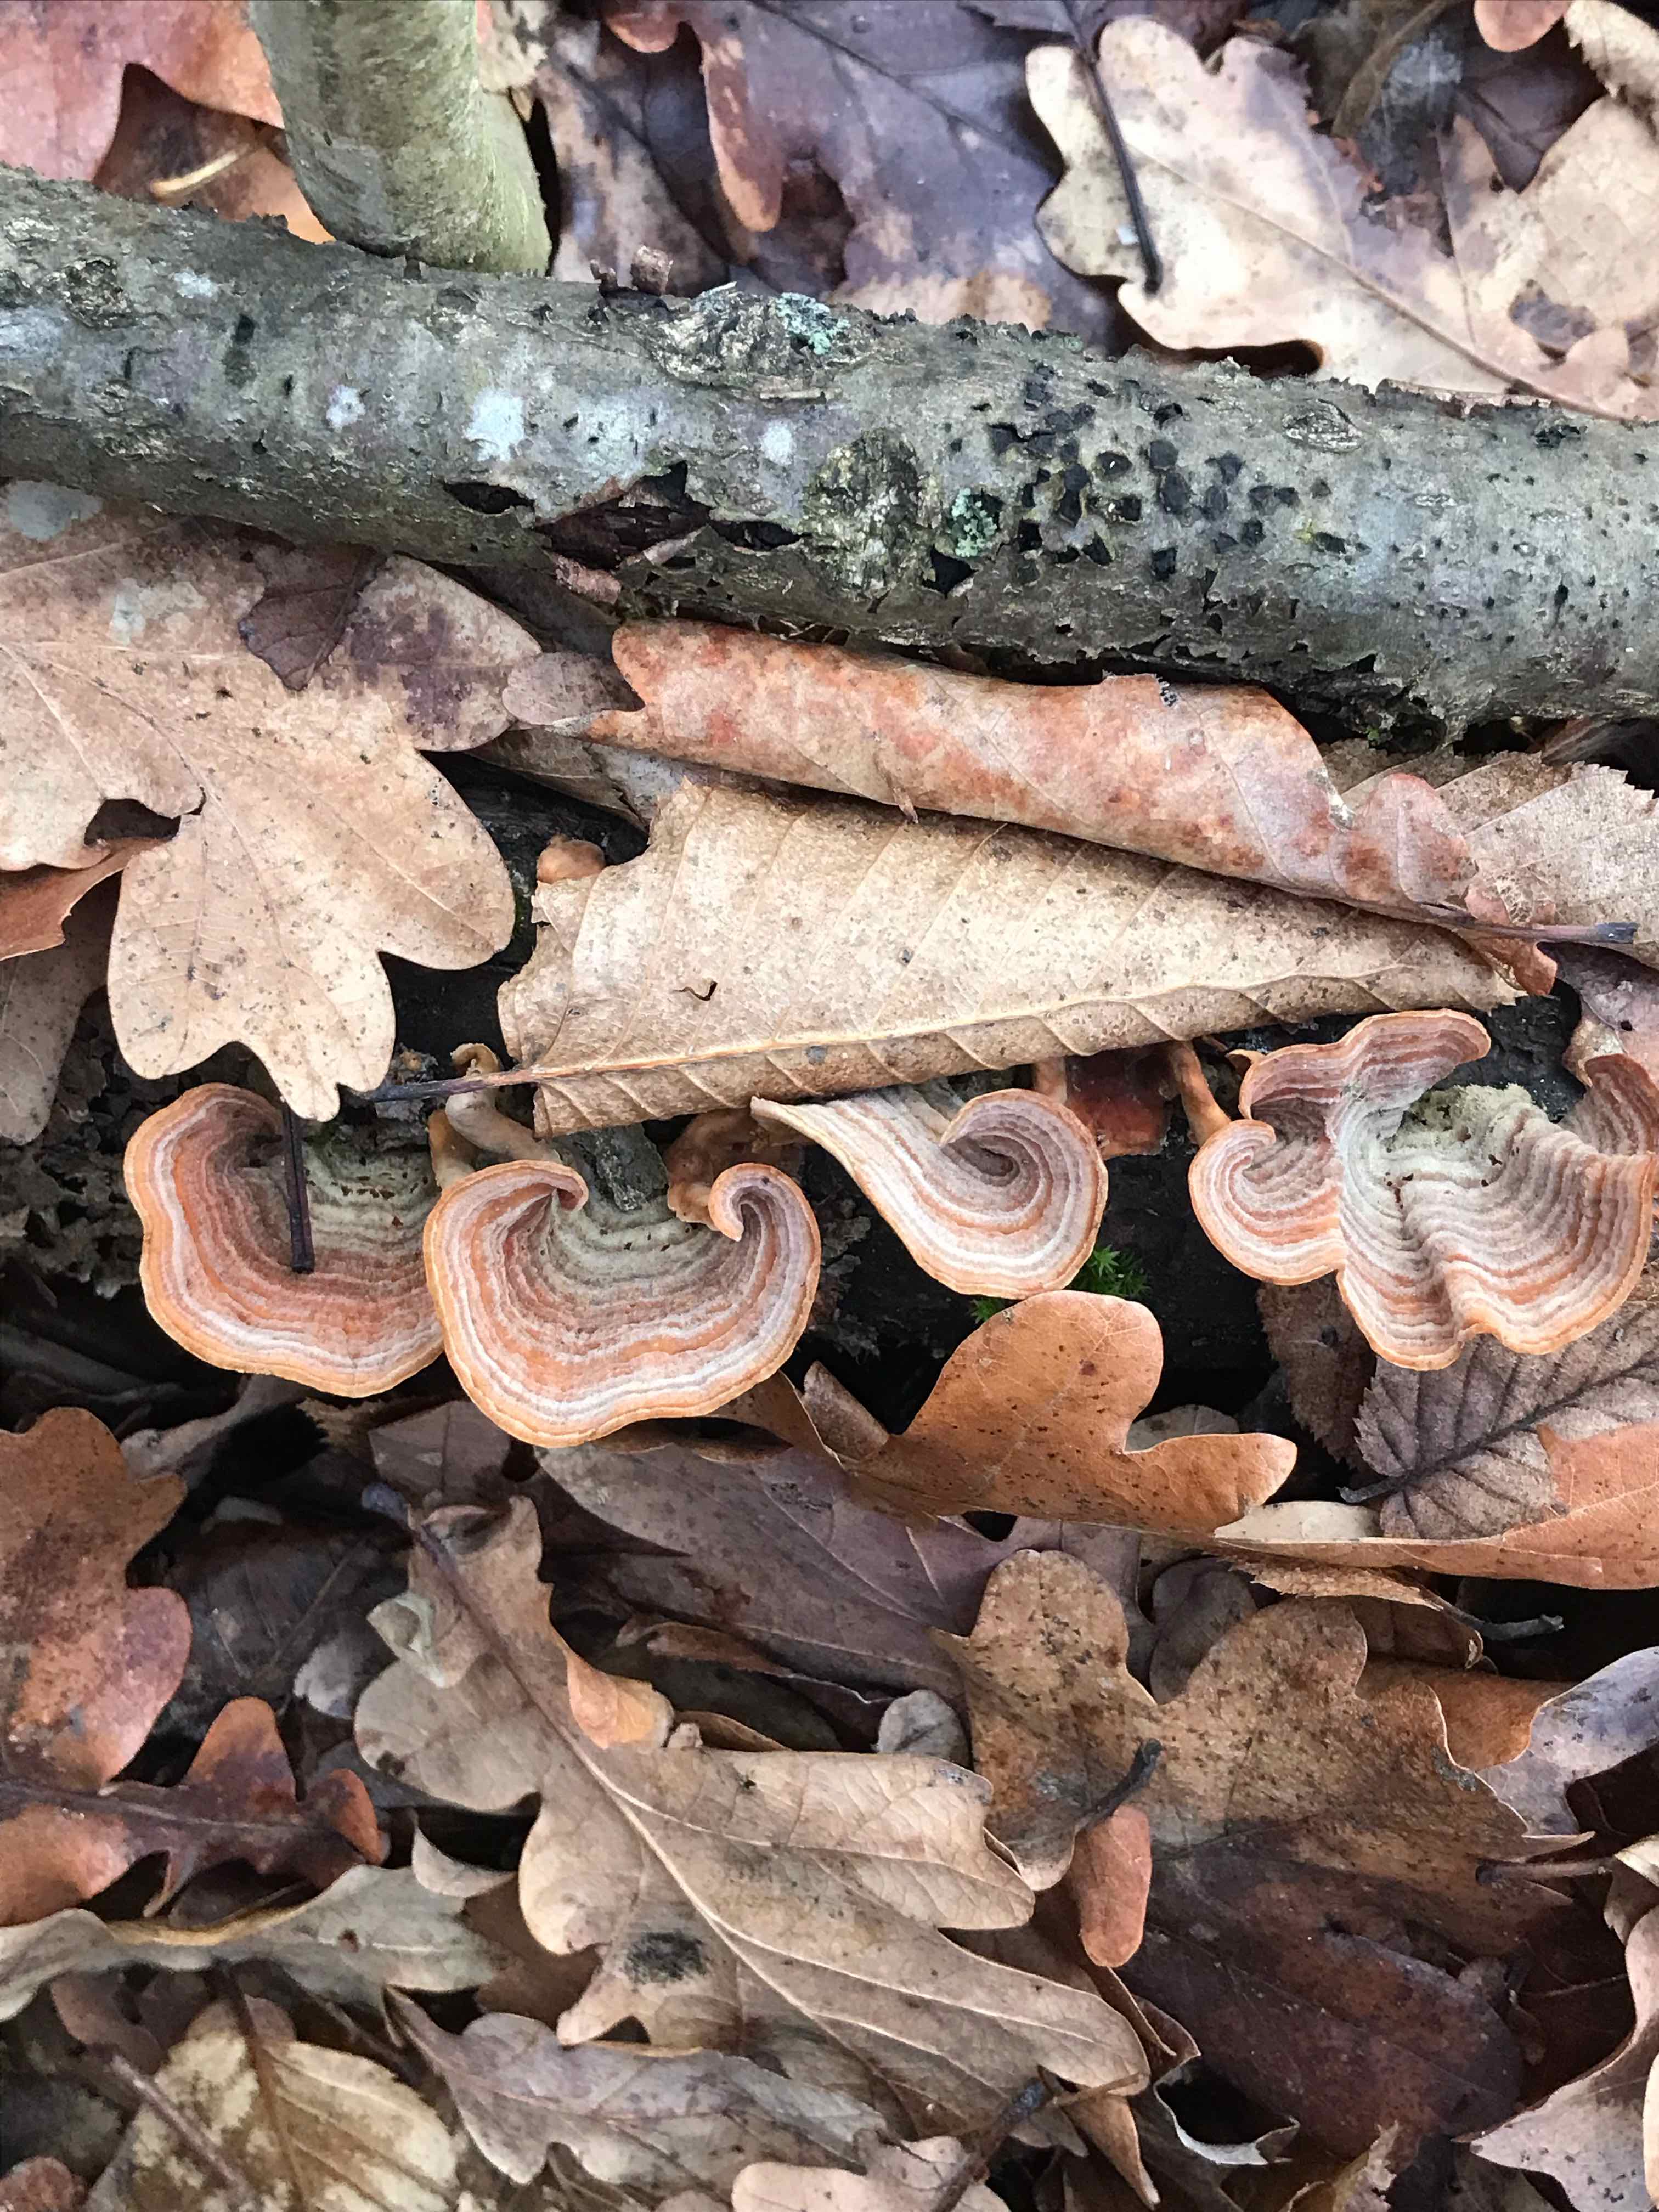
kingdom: Fungi
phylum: Basidiomycota
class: Agaricomycetes
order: Russulales
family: Stereaceae
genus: Stereum
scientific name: Stereum subtomentosum
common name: smuk lædersvamp
